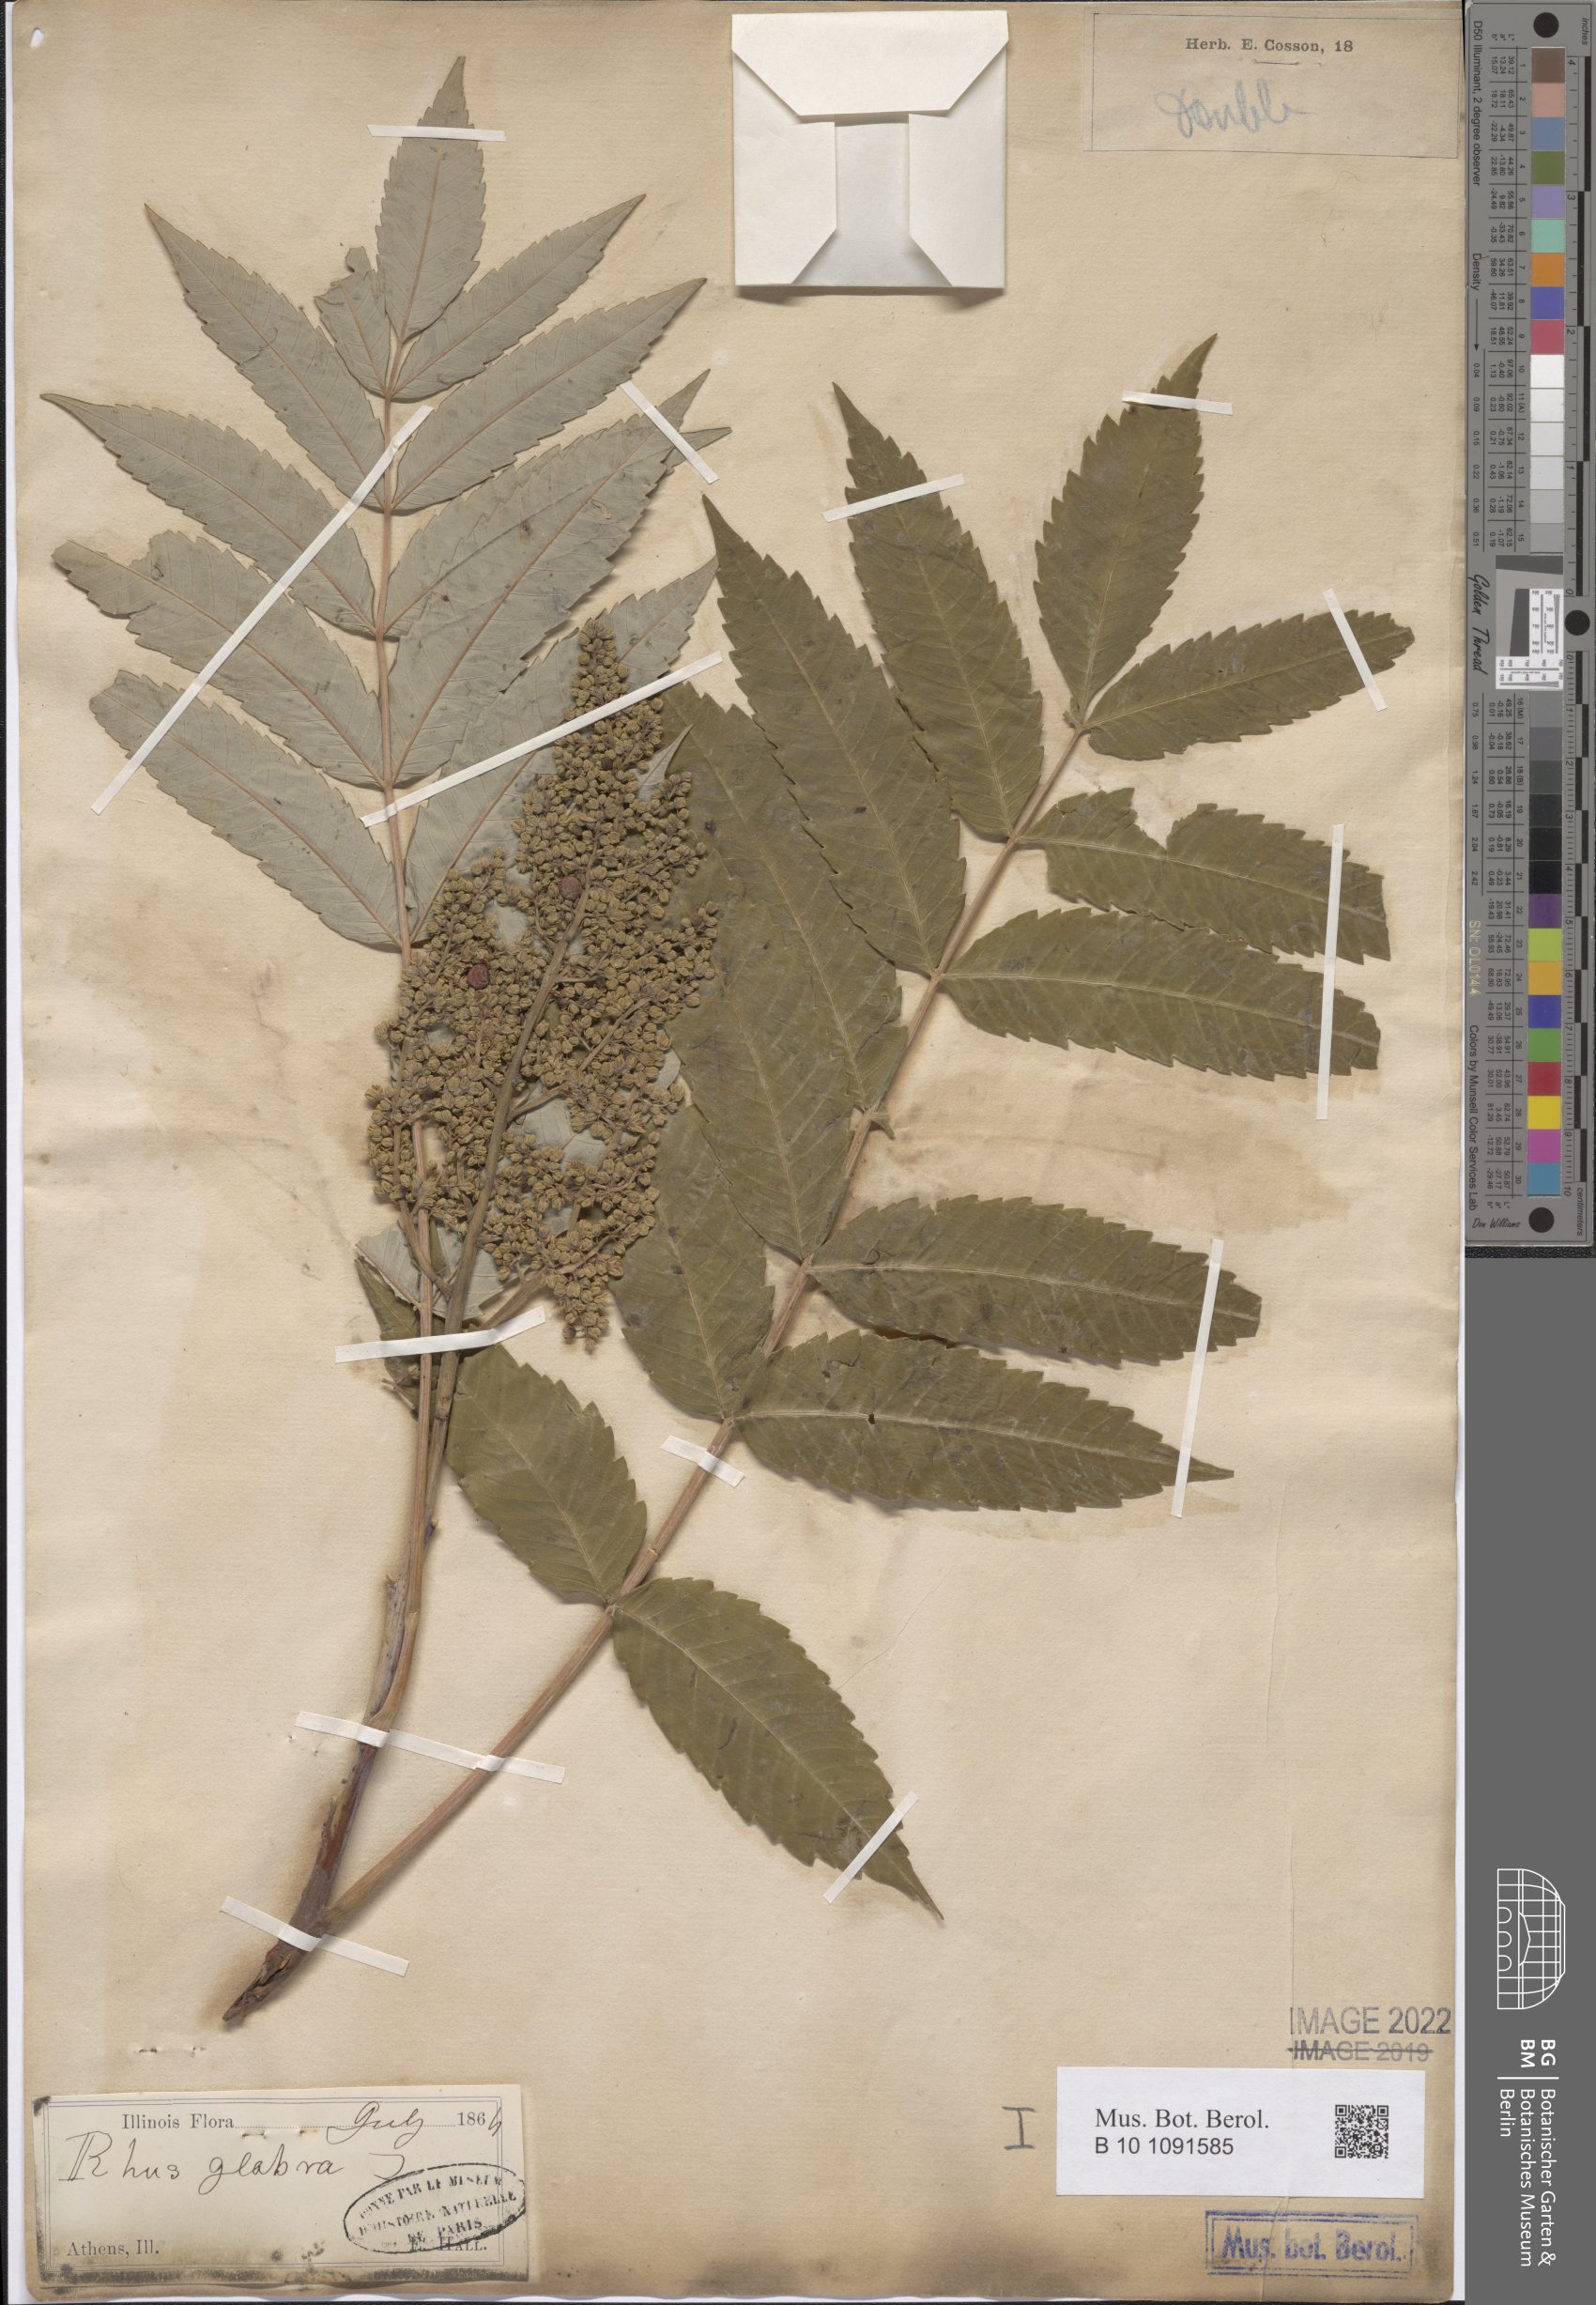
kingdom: Plantae
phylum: Tracheophyta
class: Magnoliopsida
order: Sapindales
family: Anacardiaceae
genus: Rhus
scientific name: Rhus glabra
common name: Scarlet sumac
